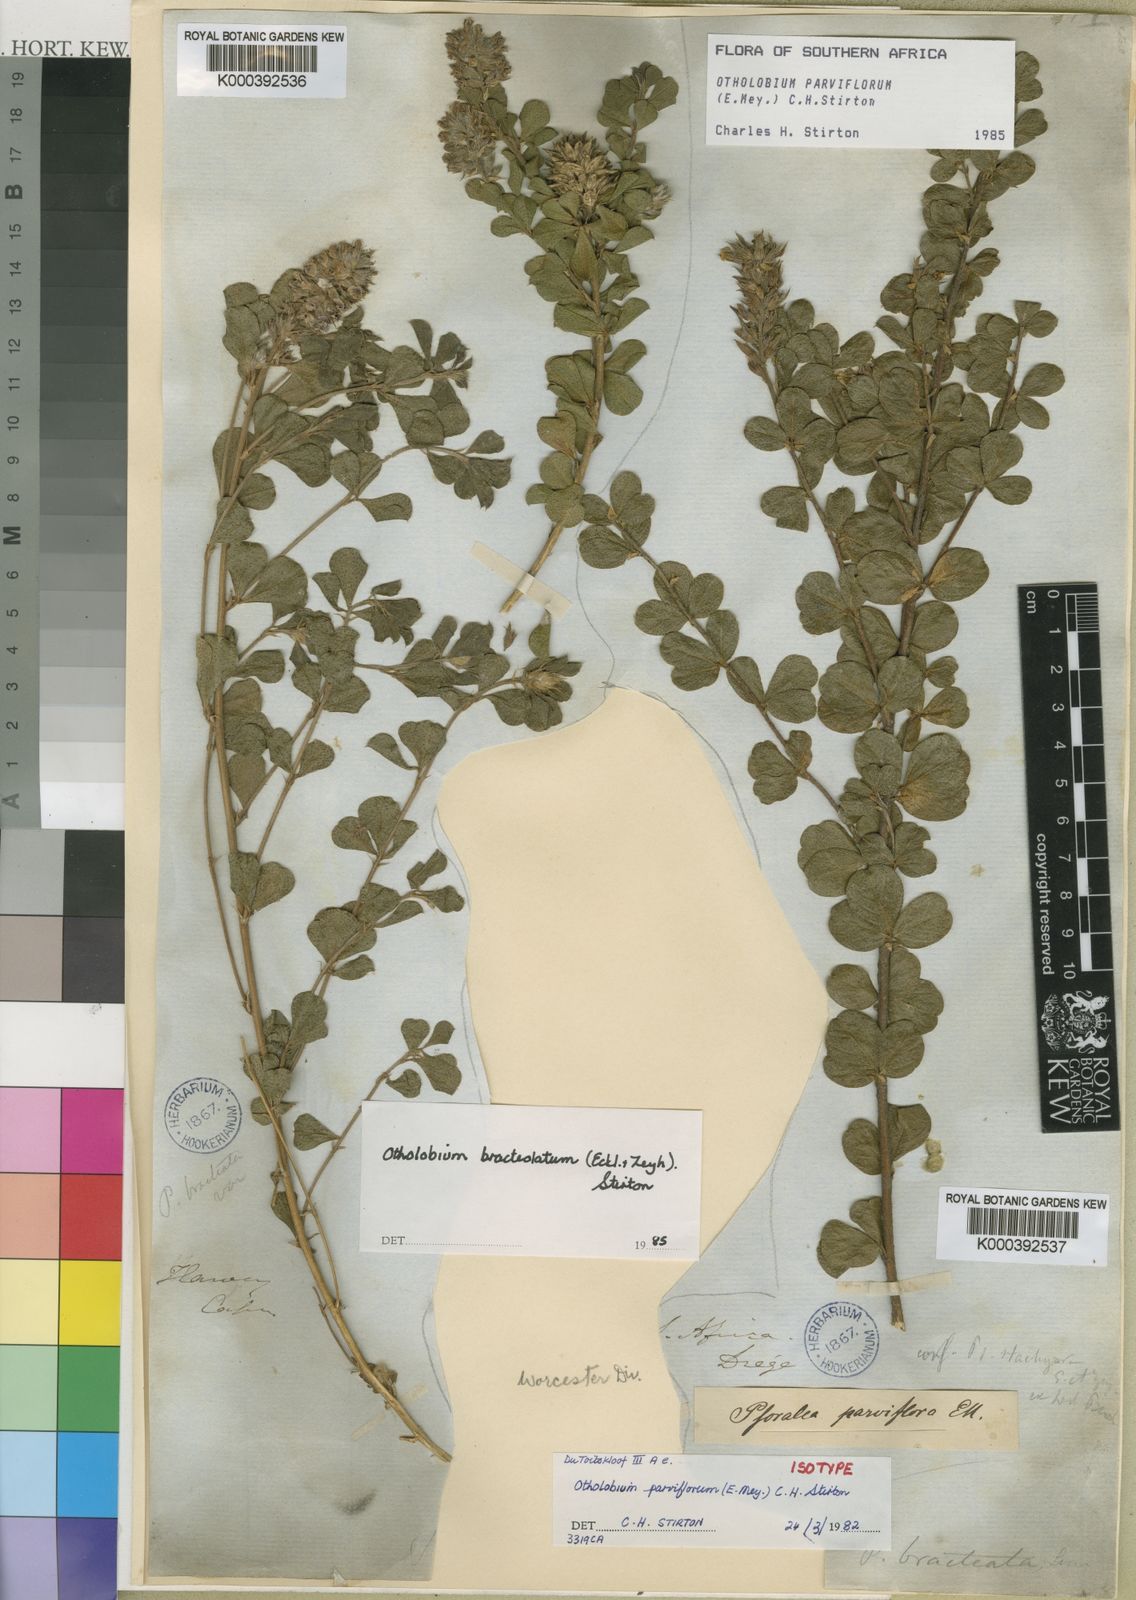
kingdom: Plantae
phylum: Tracheophyta
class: Magnoliopsida
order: Fabales
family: Fabaceae
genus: Psoralea
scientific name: Psoralea bracteolata
